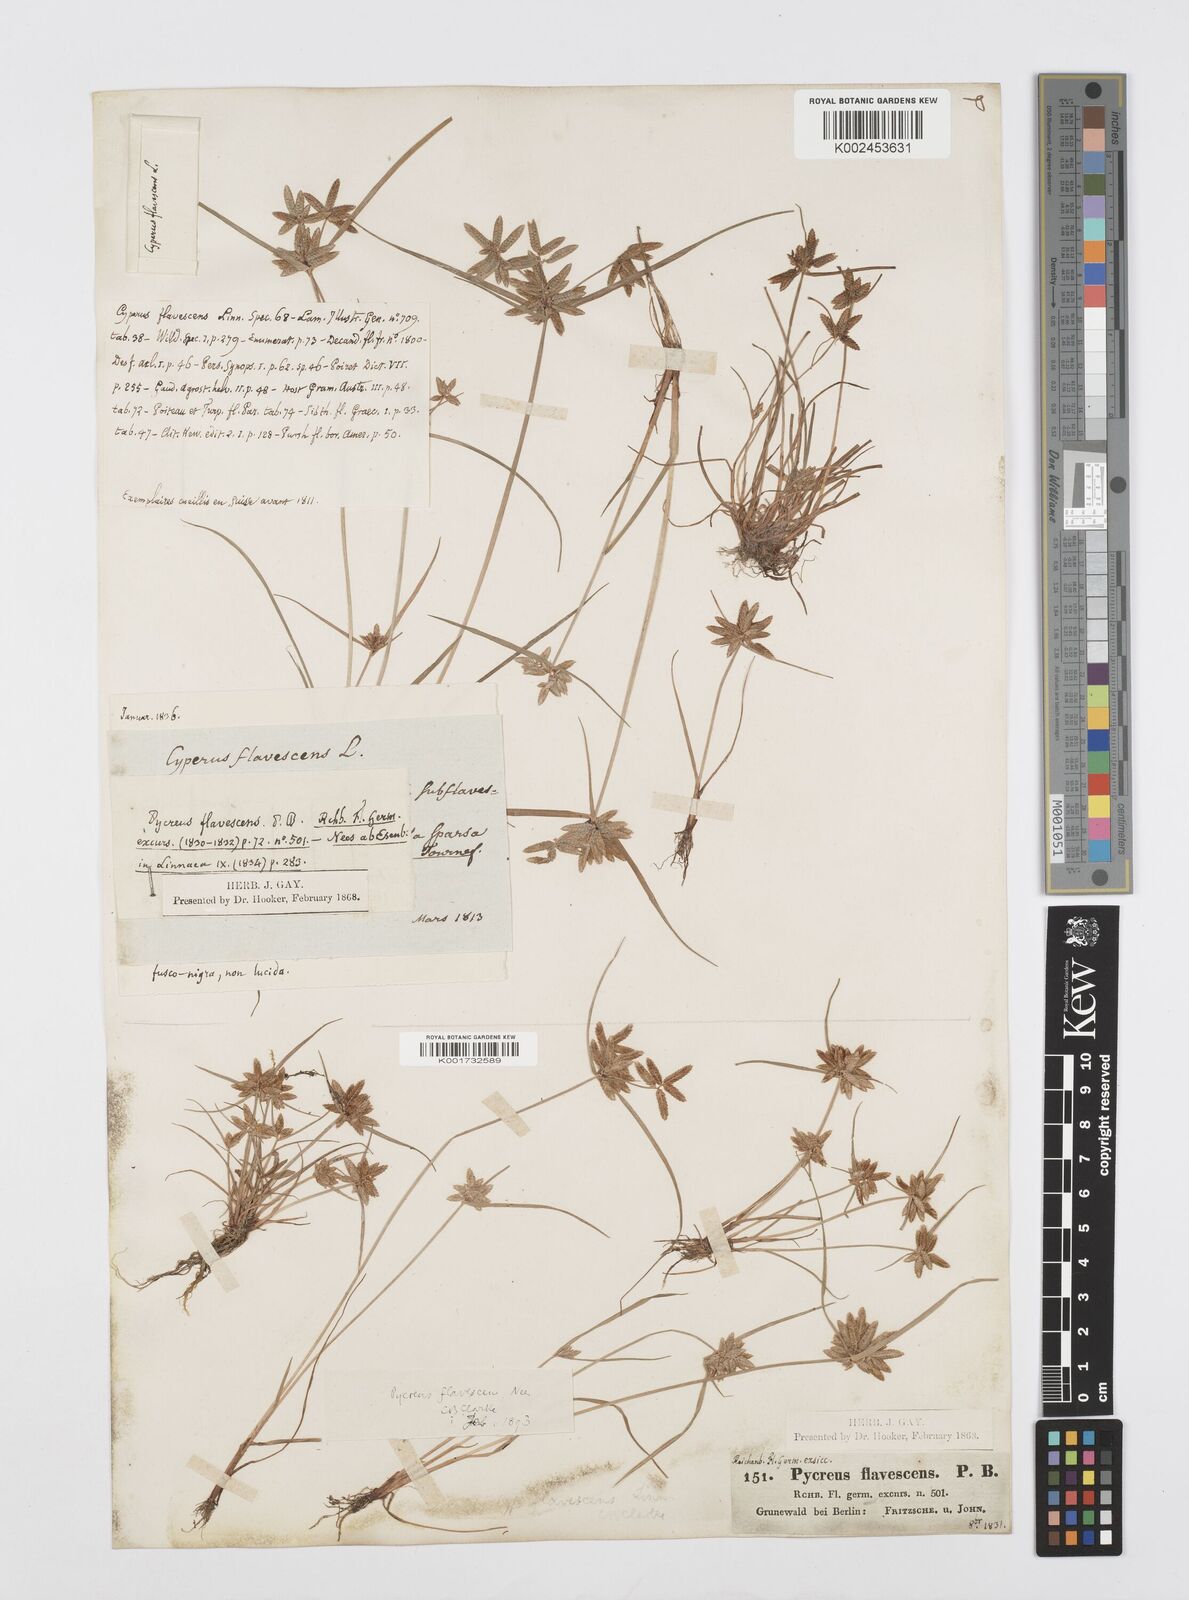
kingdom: Plantae
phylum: Tracheophyta
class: Liliopsida
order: Poales
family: Cyperaceae
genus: Cyperus
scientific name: Cyperus flavescens
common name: Yellow galingale
